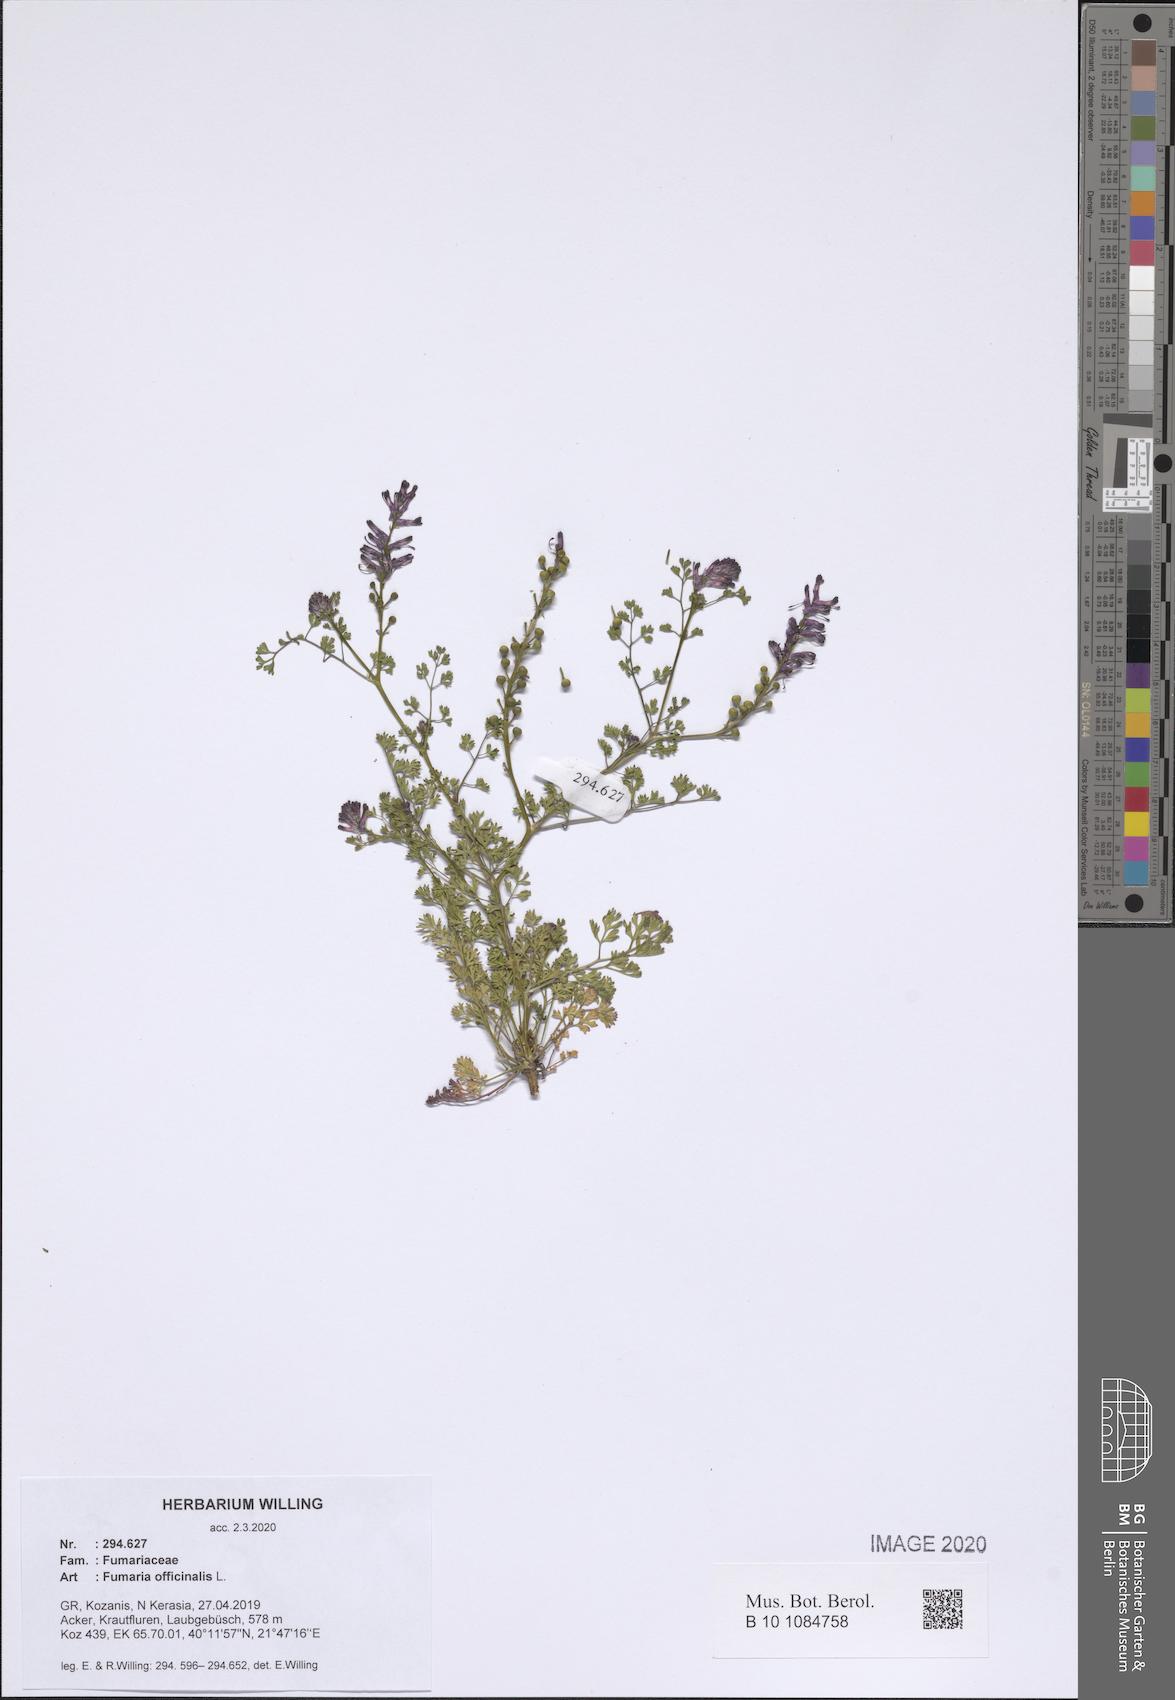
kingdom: Plantae
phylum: Tracheophyta
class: Magnoliopsida
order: Ranunculales
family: Papaveraceae
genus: Fumaria
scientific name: Fumaria officinalis
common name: Common fumitory
